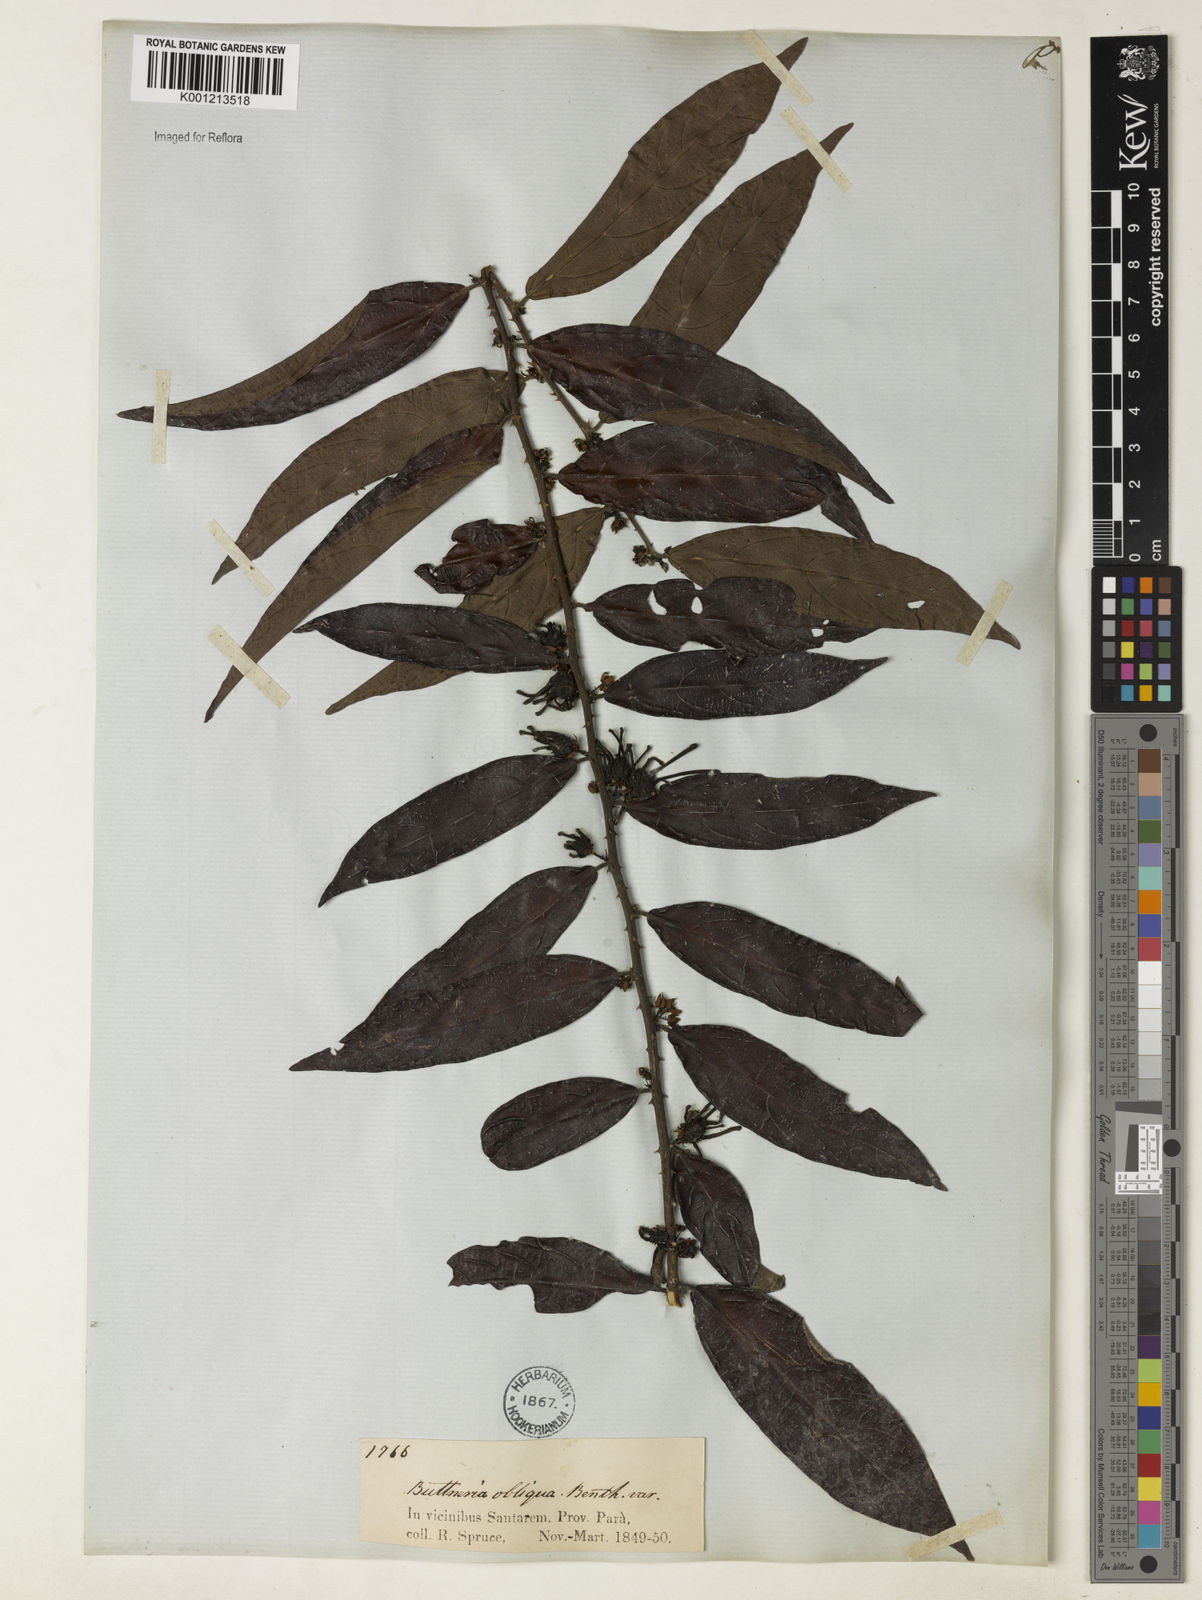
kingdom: Plantae
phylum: Tracheophyta
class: Magnoliopsida
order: Malvales
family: Malvaceae
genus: Byttneria
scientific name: Byttneria obliqua
